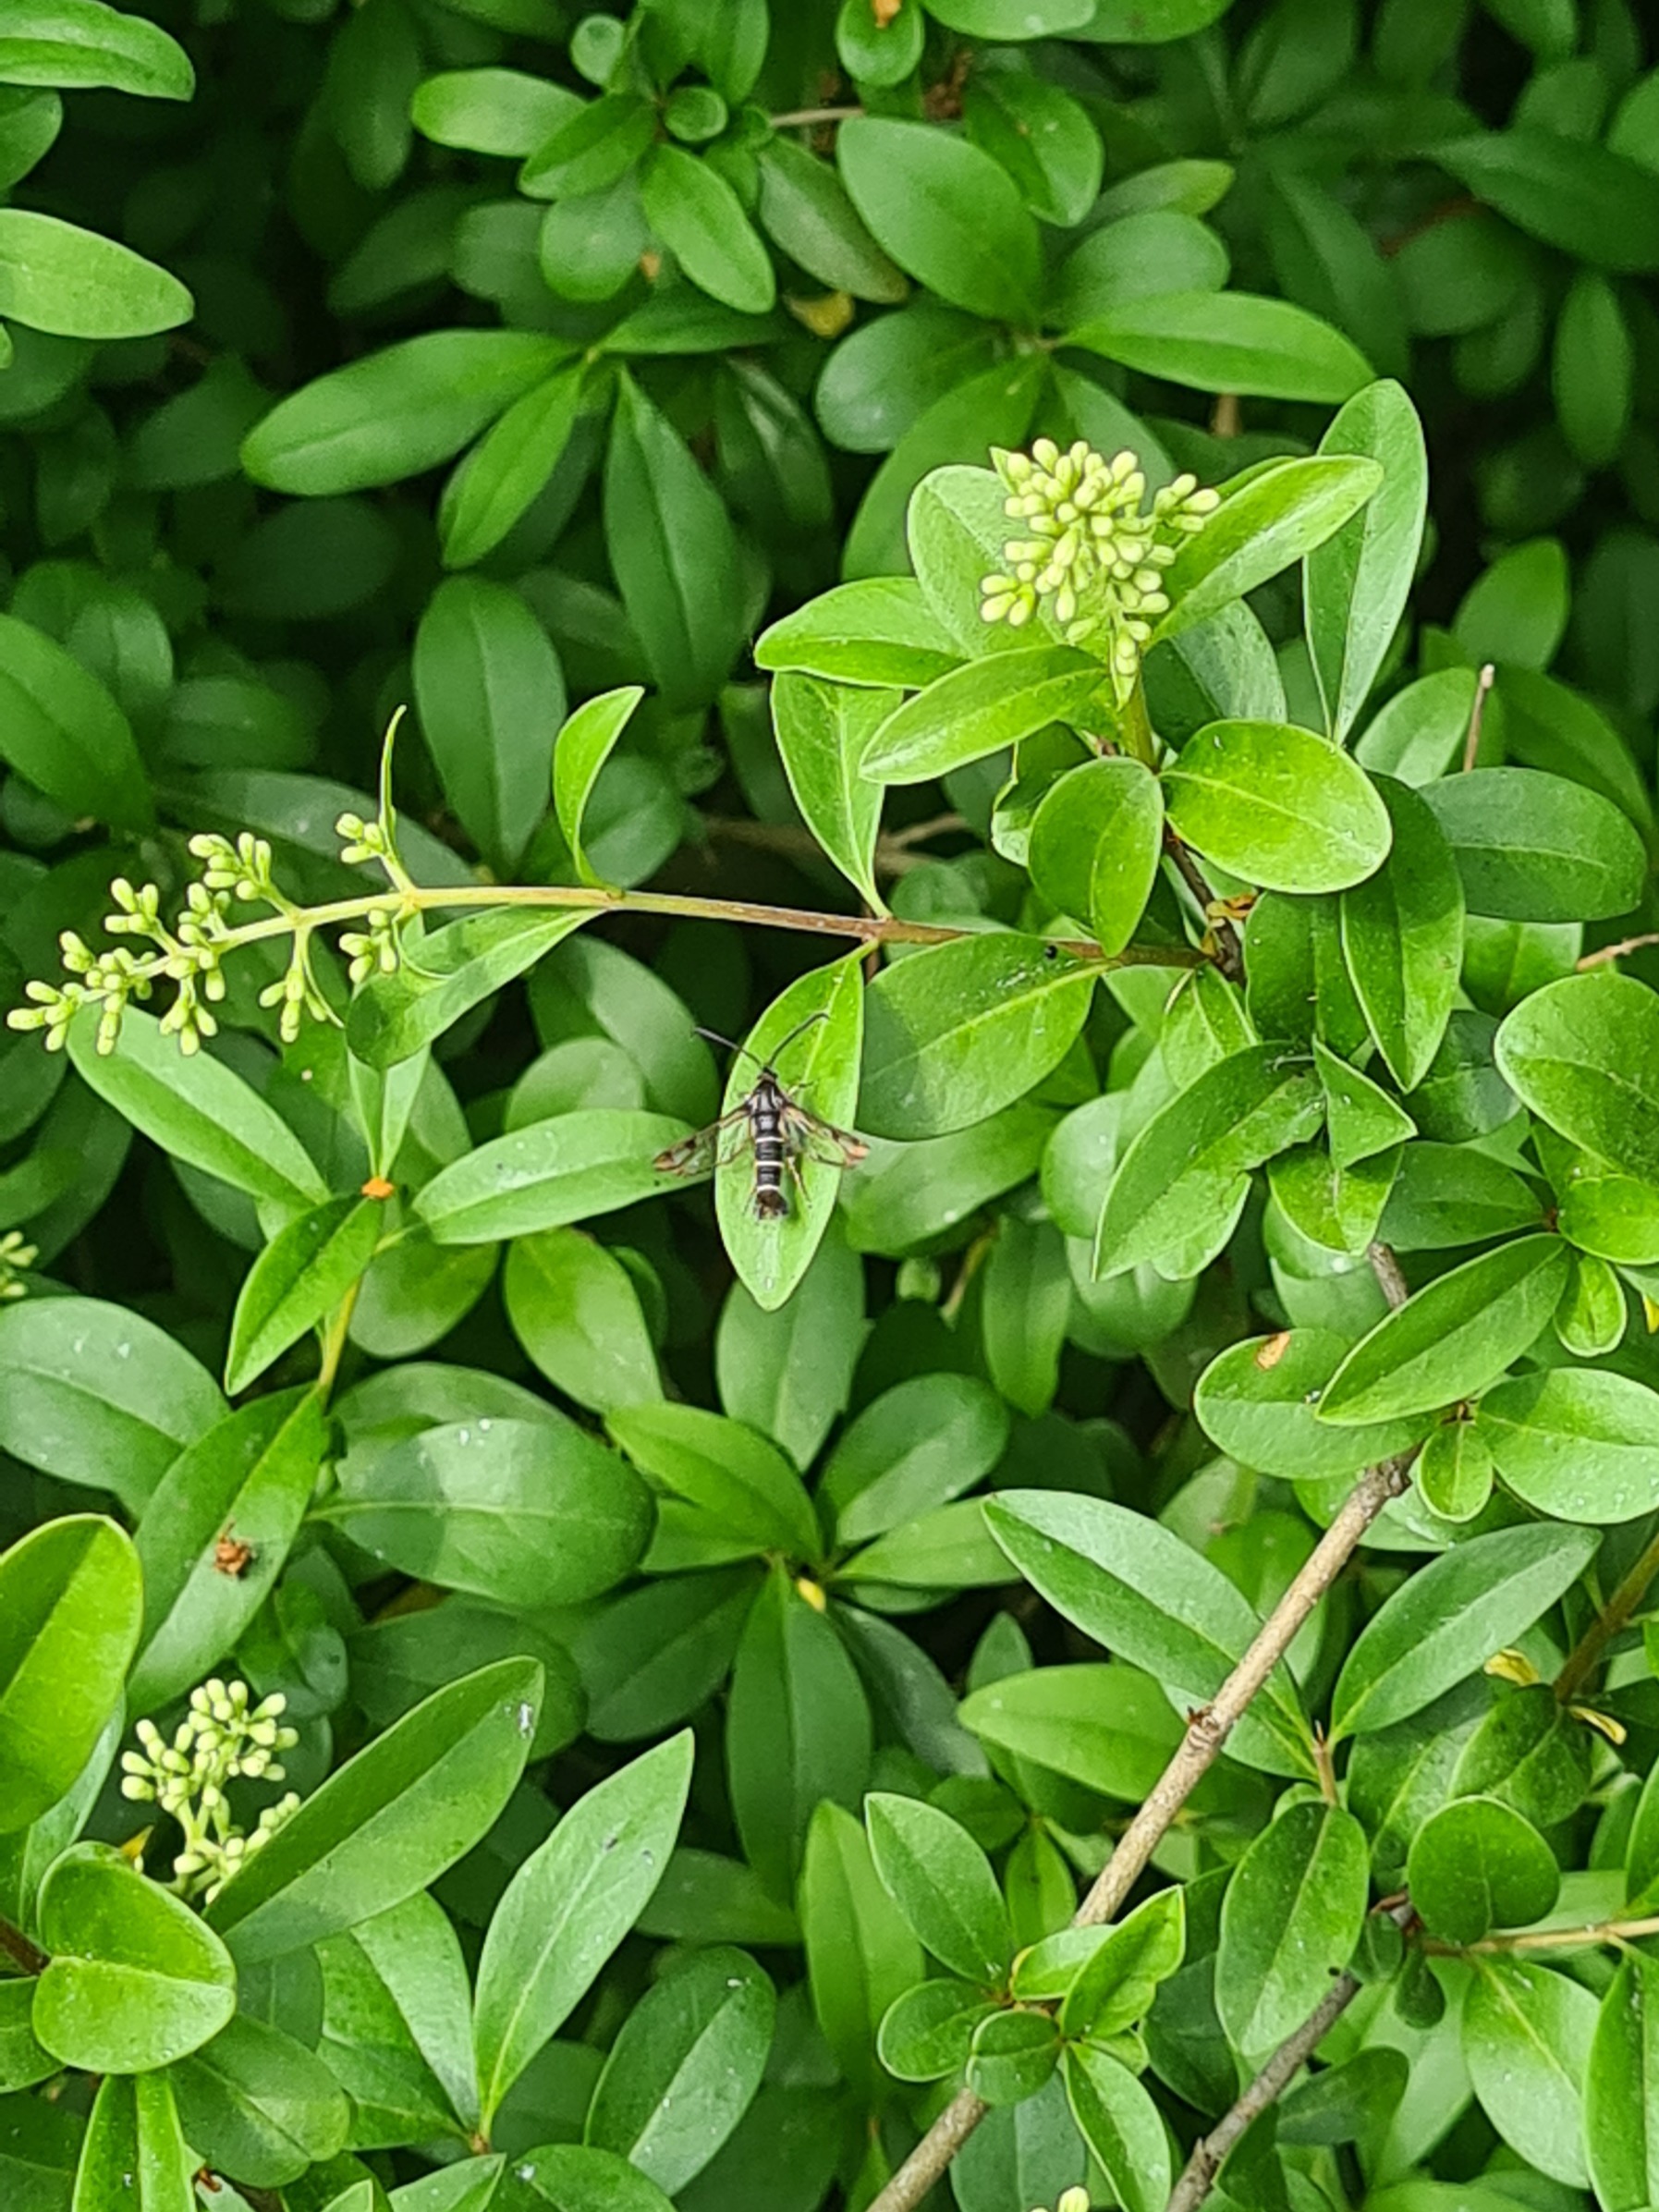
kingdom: Animalia
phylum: Arthropoda
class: Insecta
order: Lepidoptera
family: Sesiidae
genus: Synanthedon
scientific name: Synanthedon tipuliformis
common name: Ribsglassværmer
